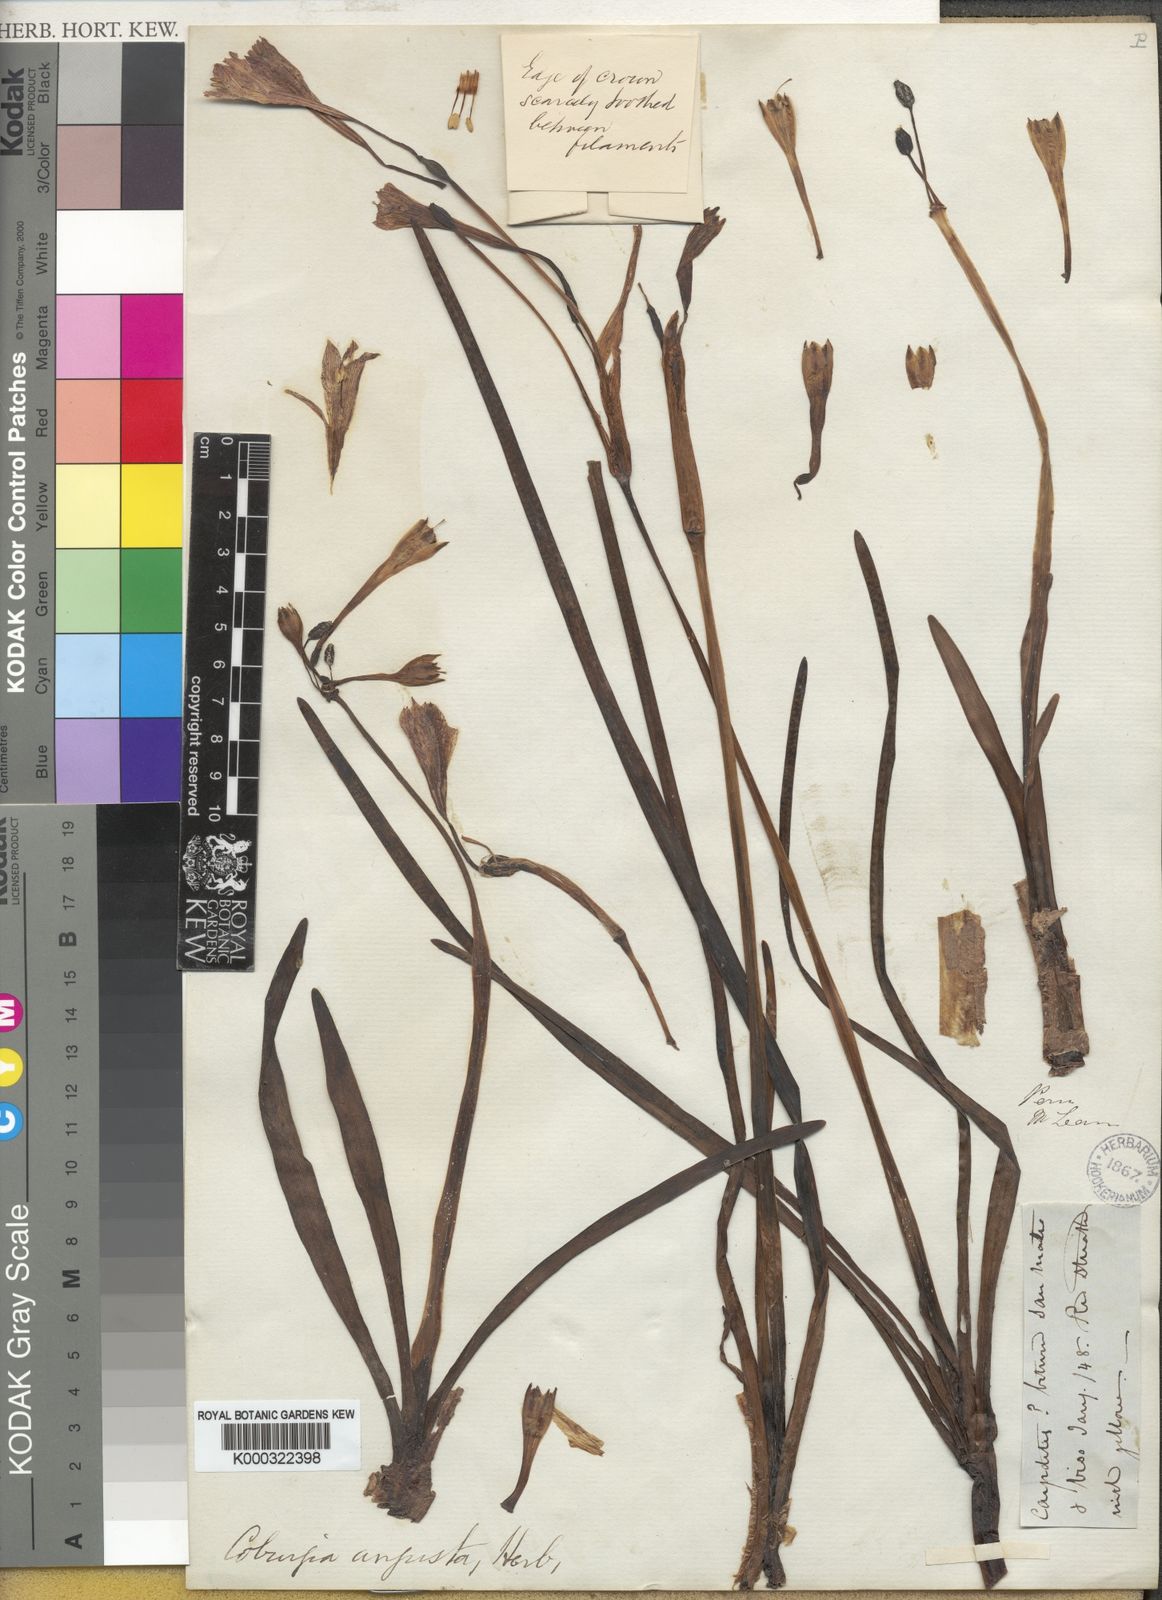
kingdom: Plantae
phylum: Tracheophyta
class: Liliopsida
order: Asparagales
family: Amaryllidaceae
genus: Clinanthus
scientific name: Clinanthus recurvatus
